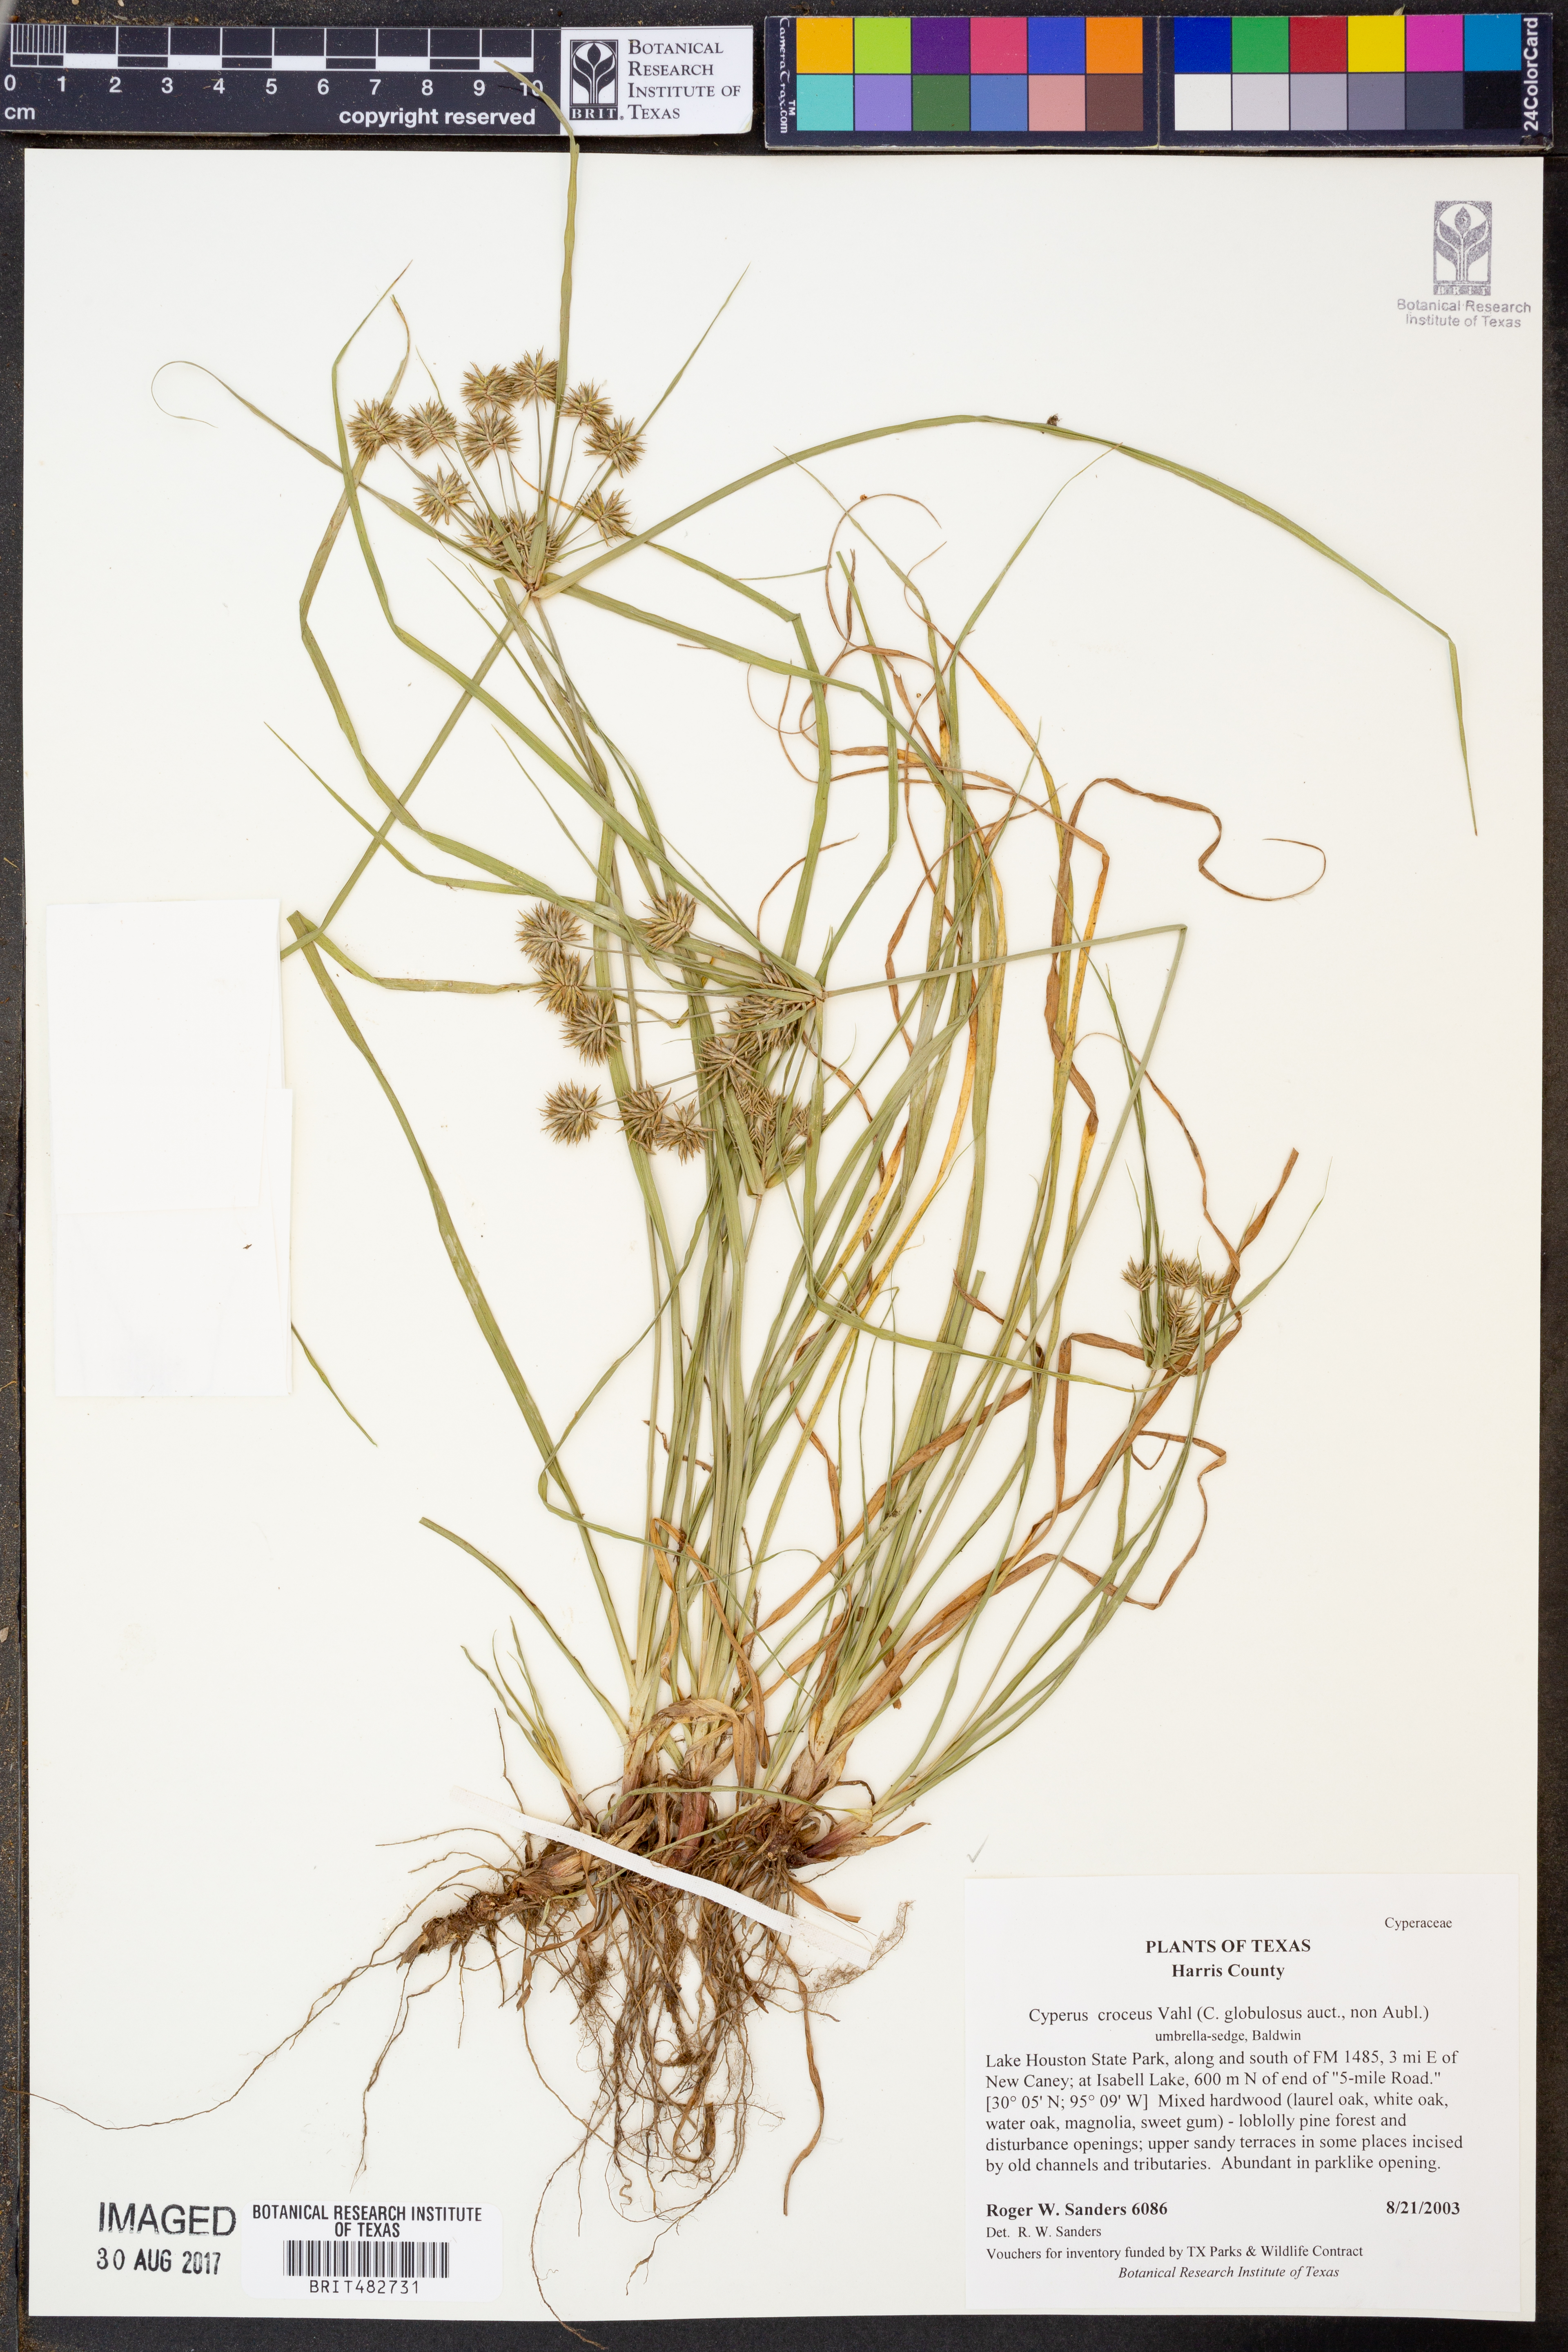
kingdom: Plantae
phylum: Tracheophyta
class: Liliopsida
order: Poales
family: Cyperaceae
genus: Cyperus
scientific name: Cyperus croceus
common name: Baldwin's flatsedge
